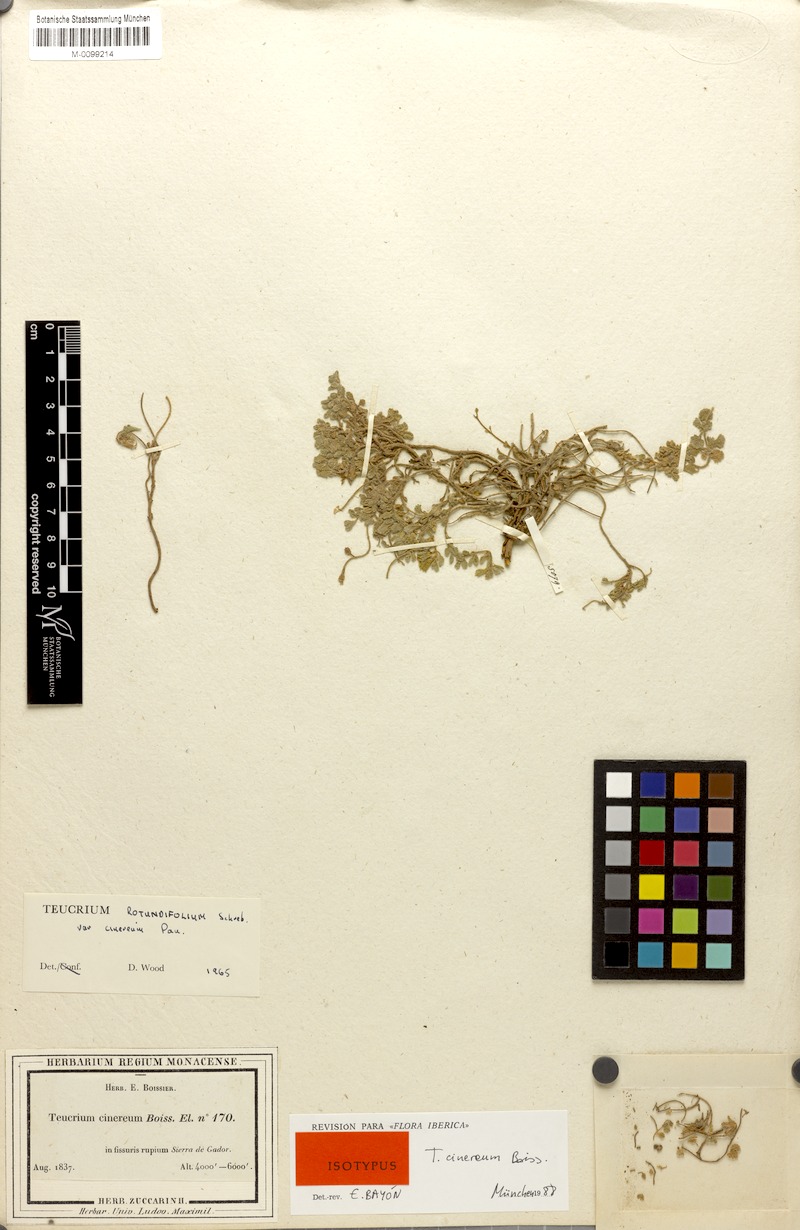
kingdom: Plantae
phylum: Tracheophyta
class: Magnoliopsida
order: Lamiales
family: Lamiaceae
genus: Teucrium
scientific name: Teucrium rotundifolium
